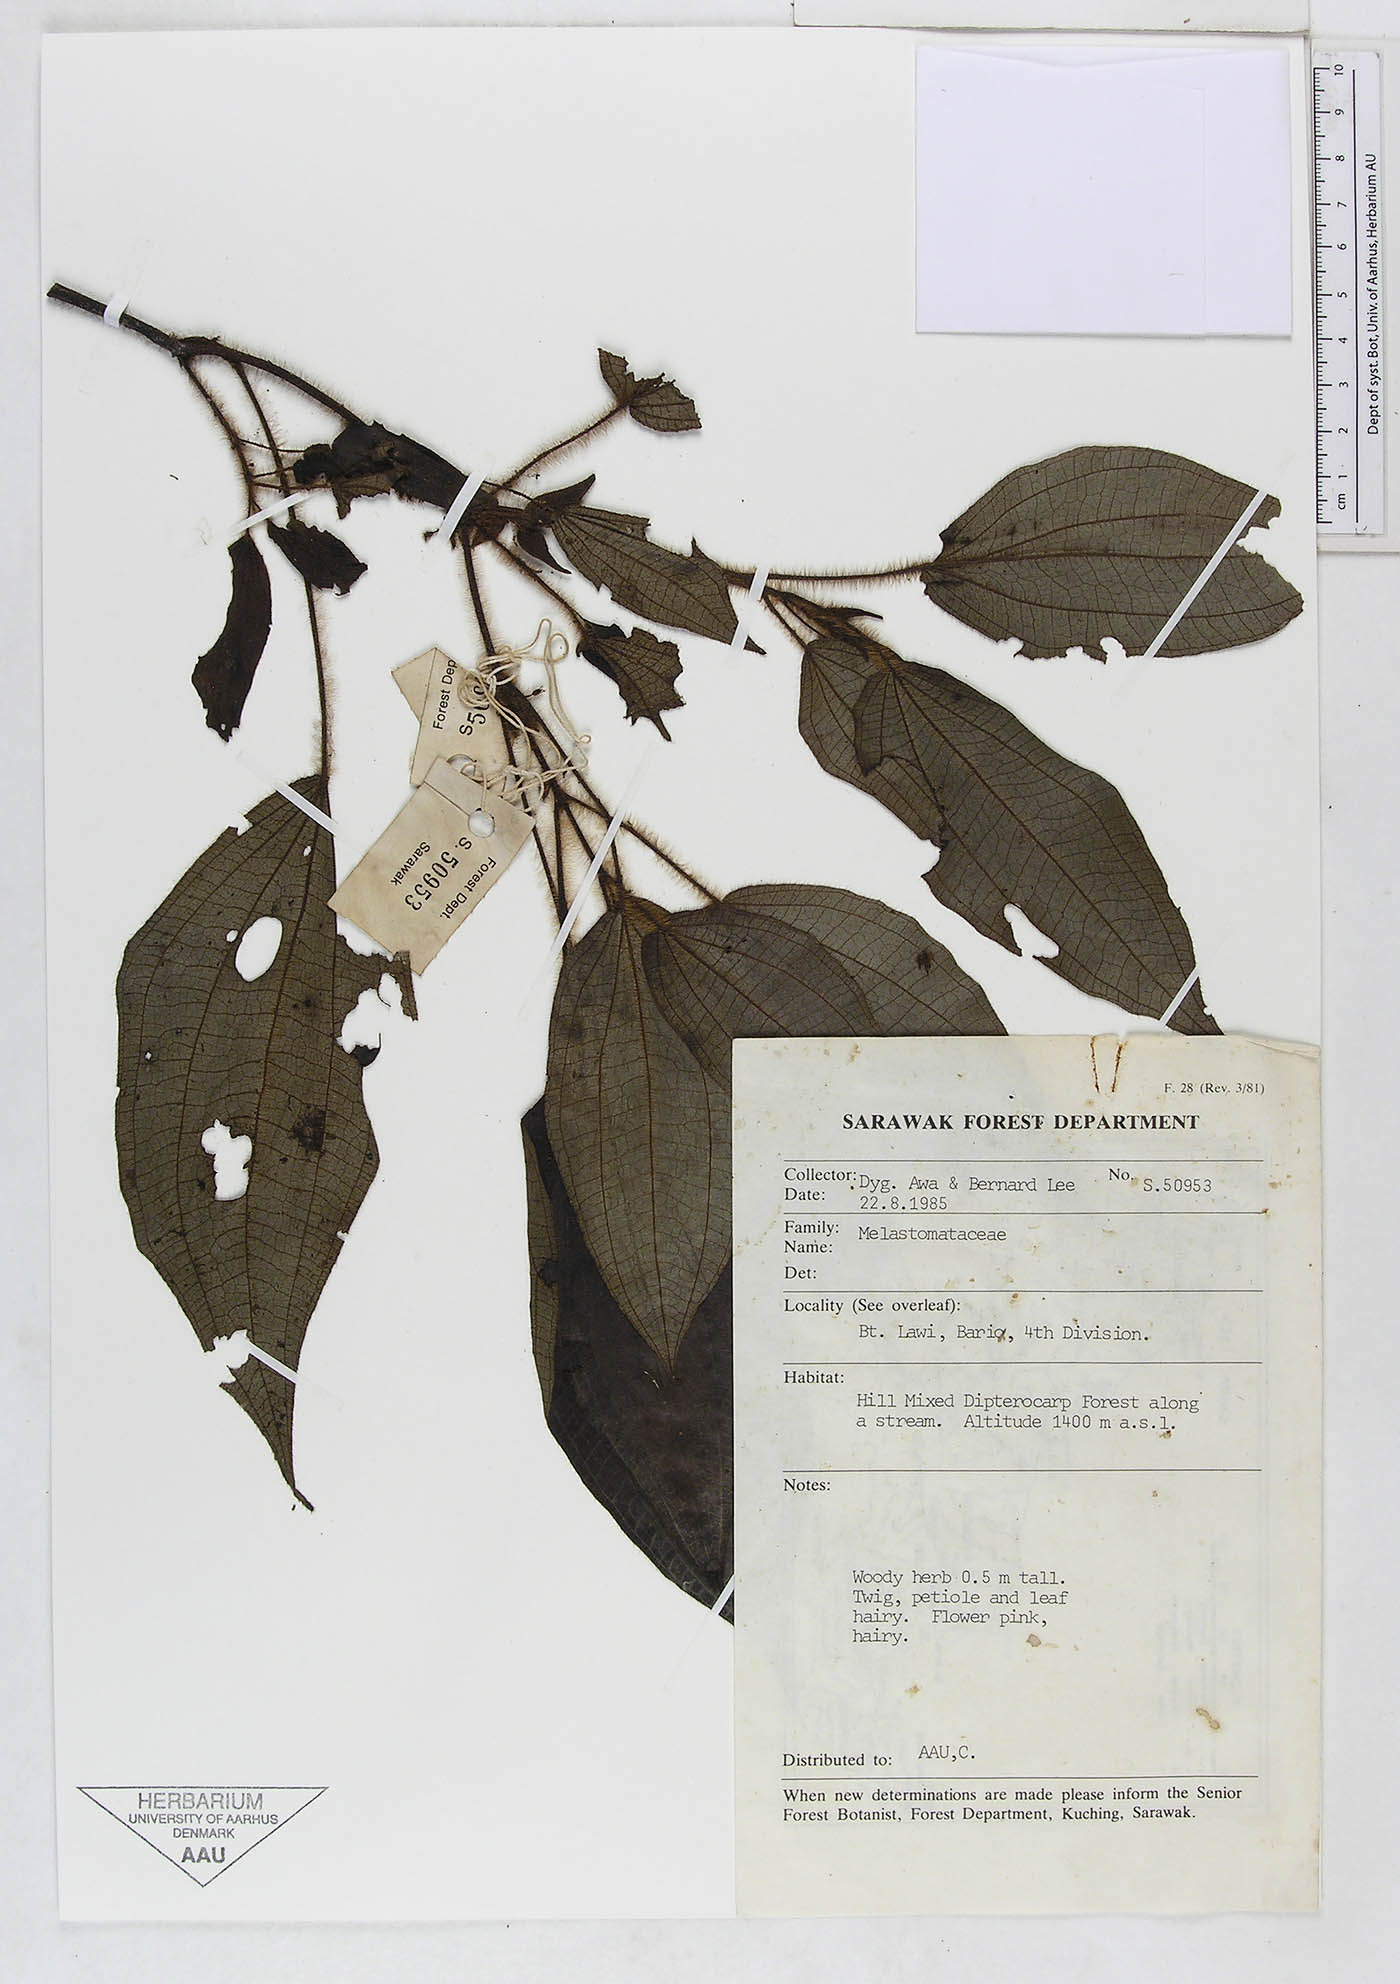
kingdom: Plantae
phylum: Tracheophyta
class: Magnoliopsida
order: Myrtales
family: Melastomataceae
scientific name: Melastomataceae
